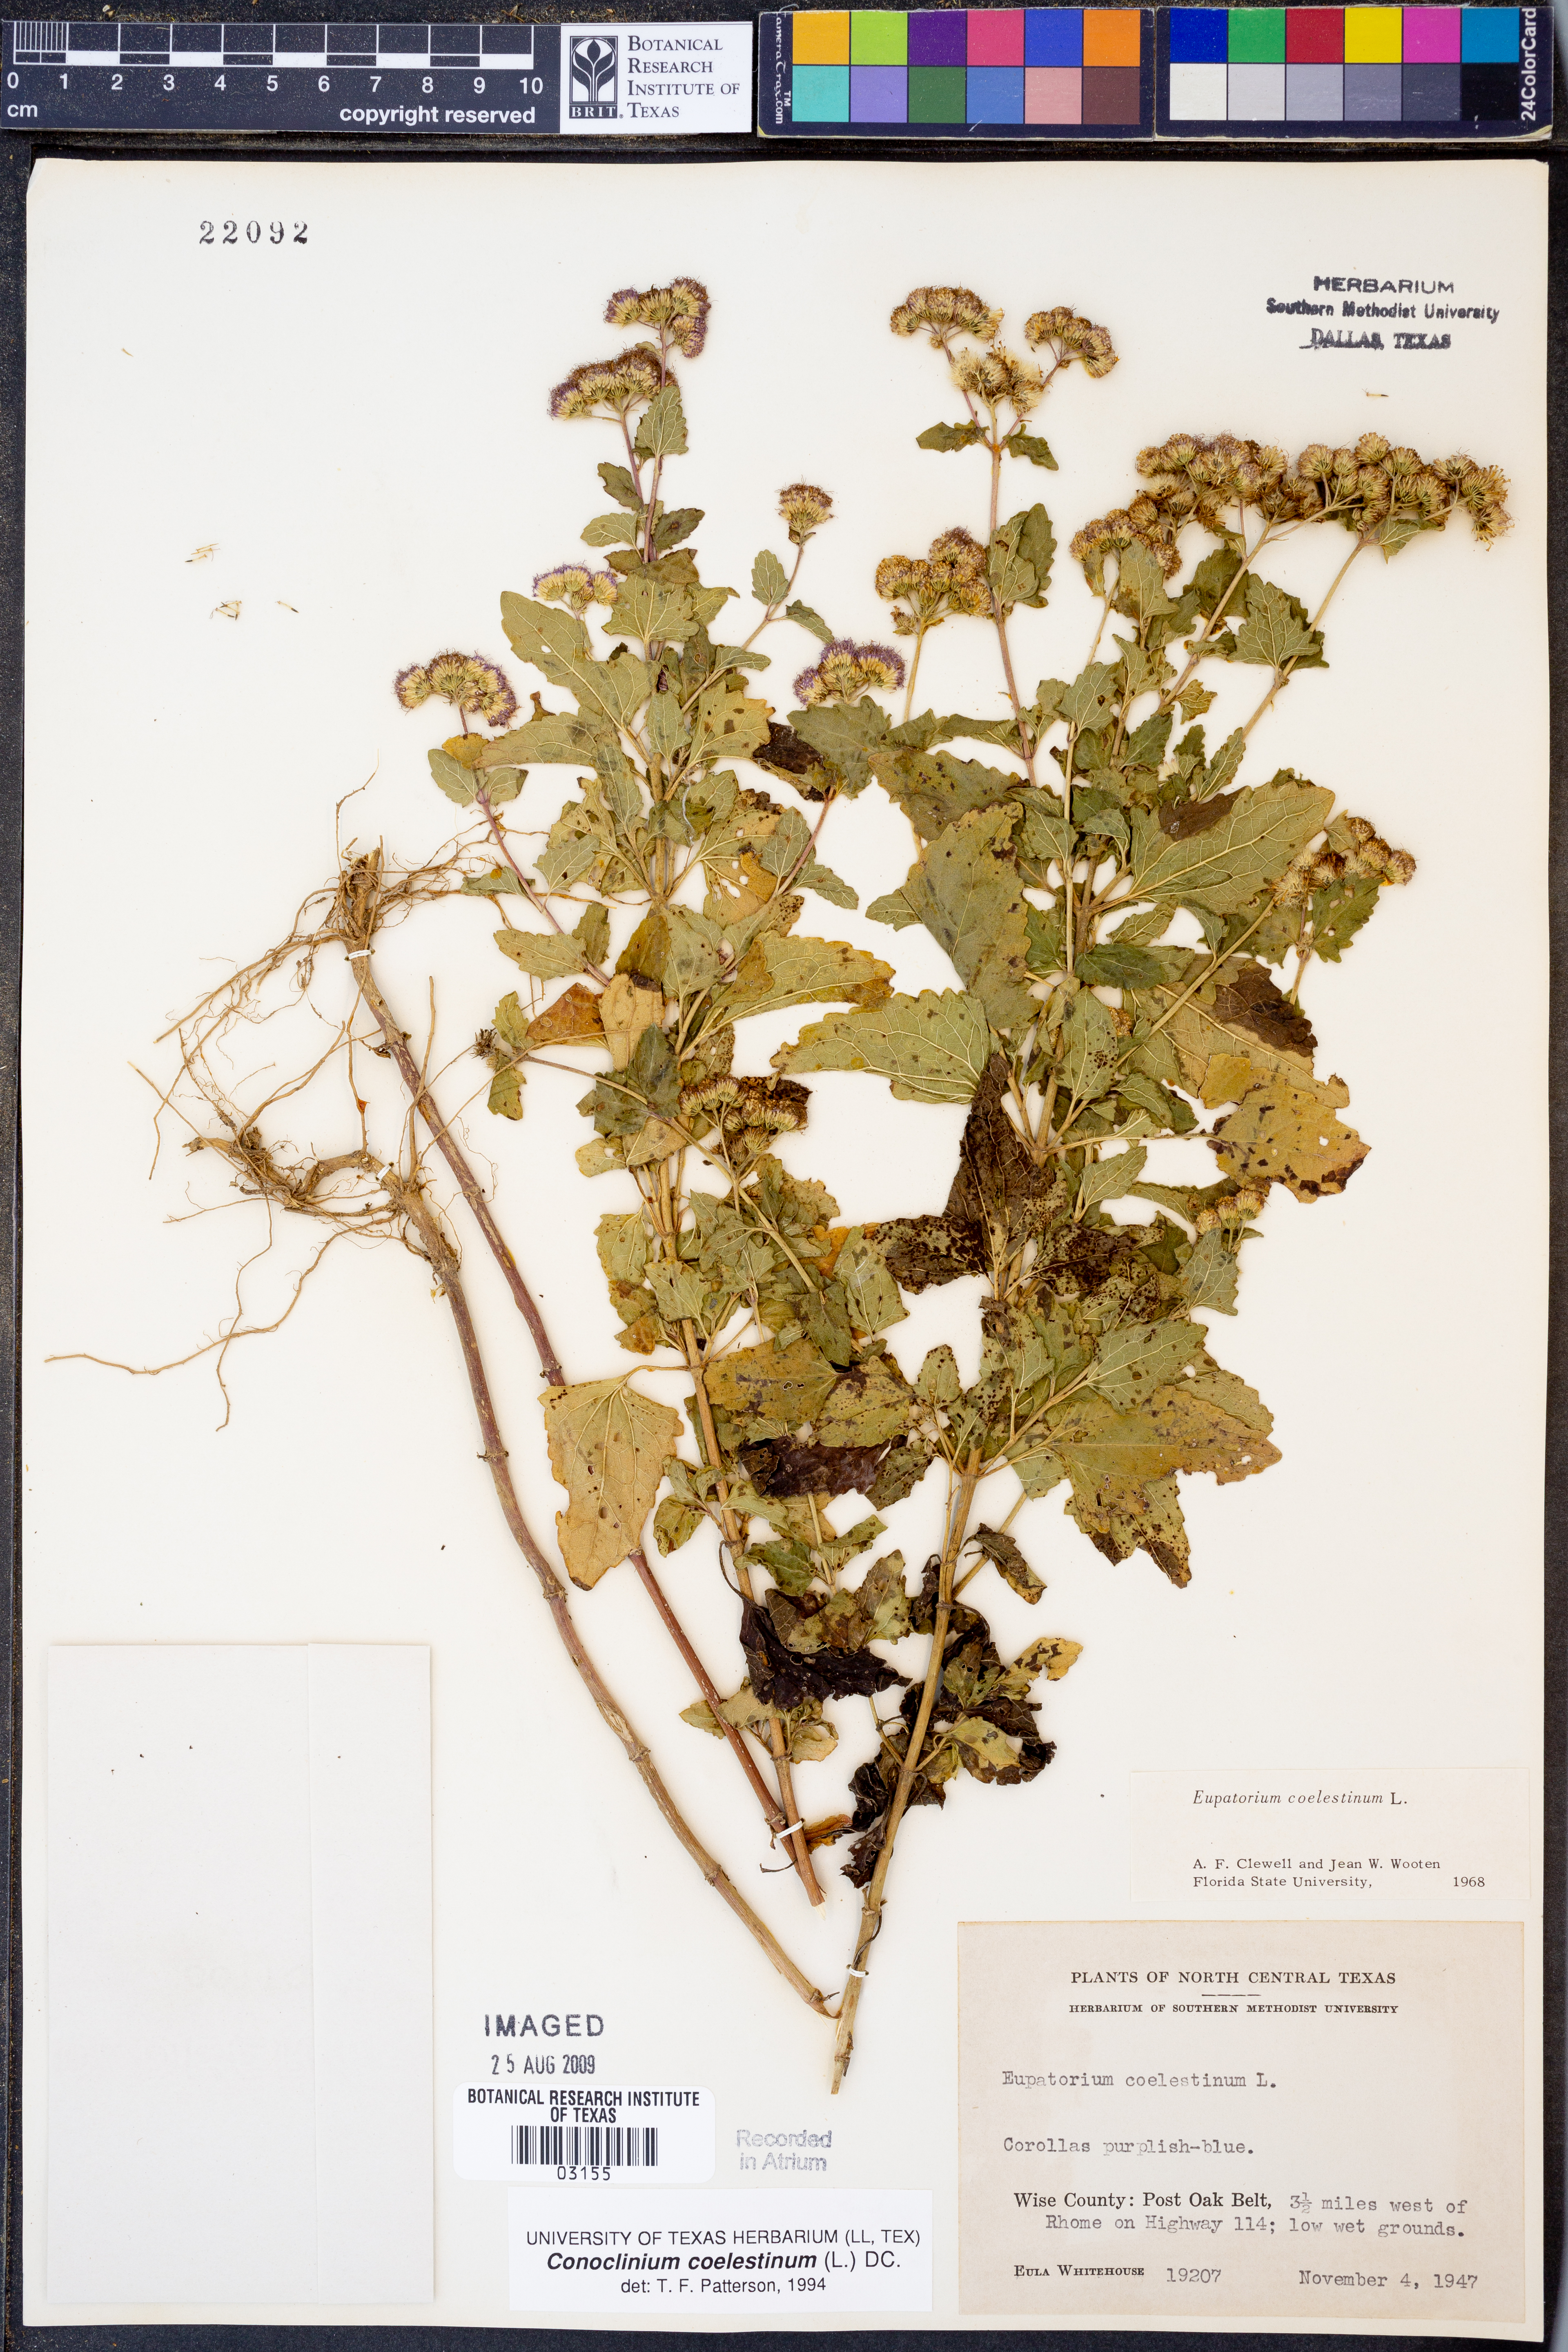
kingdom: Plantae
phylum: Tracheophyta
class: Magnoliopsida
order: Asterales
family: Asteraceae
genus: Conoclinium
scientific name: Conoclinium coelestinum
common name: Blue mistflower
